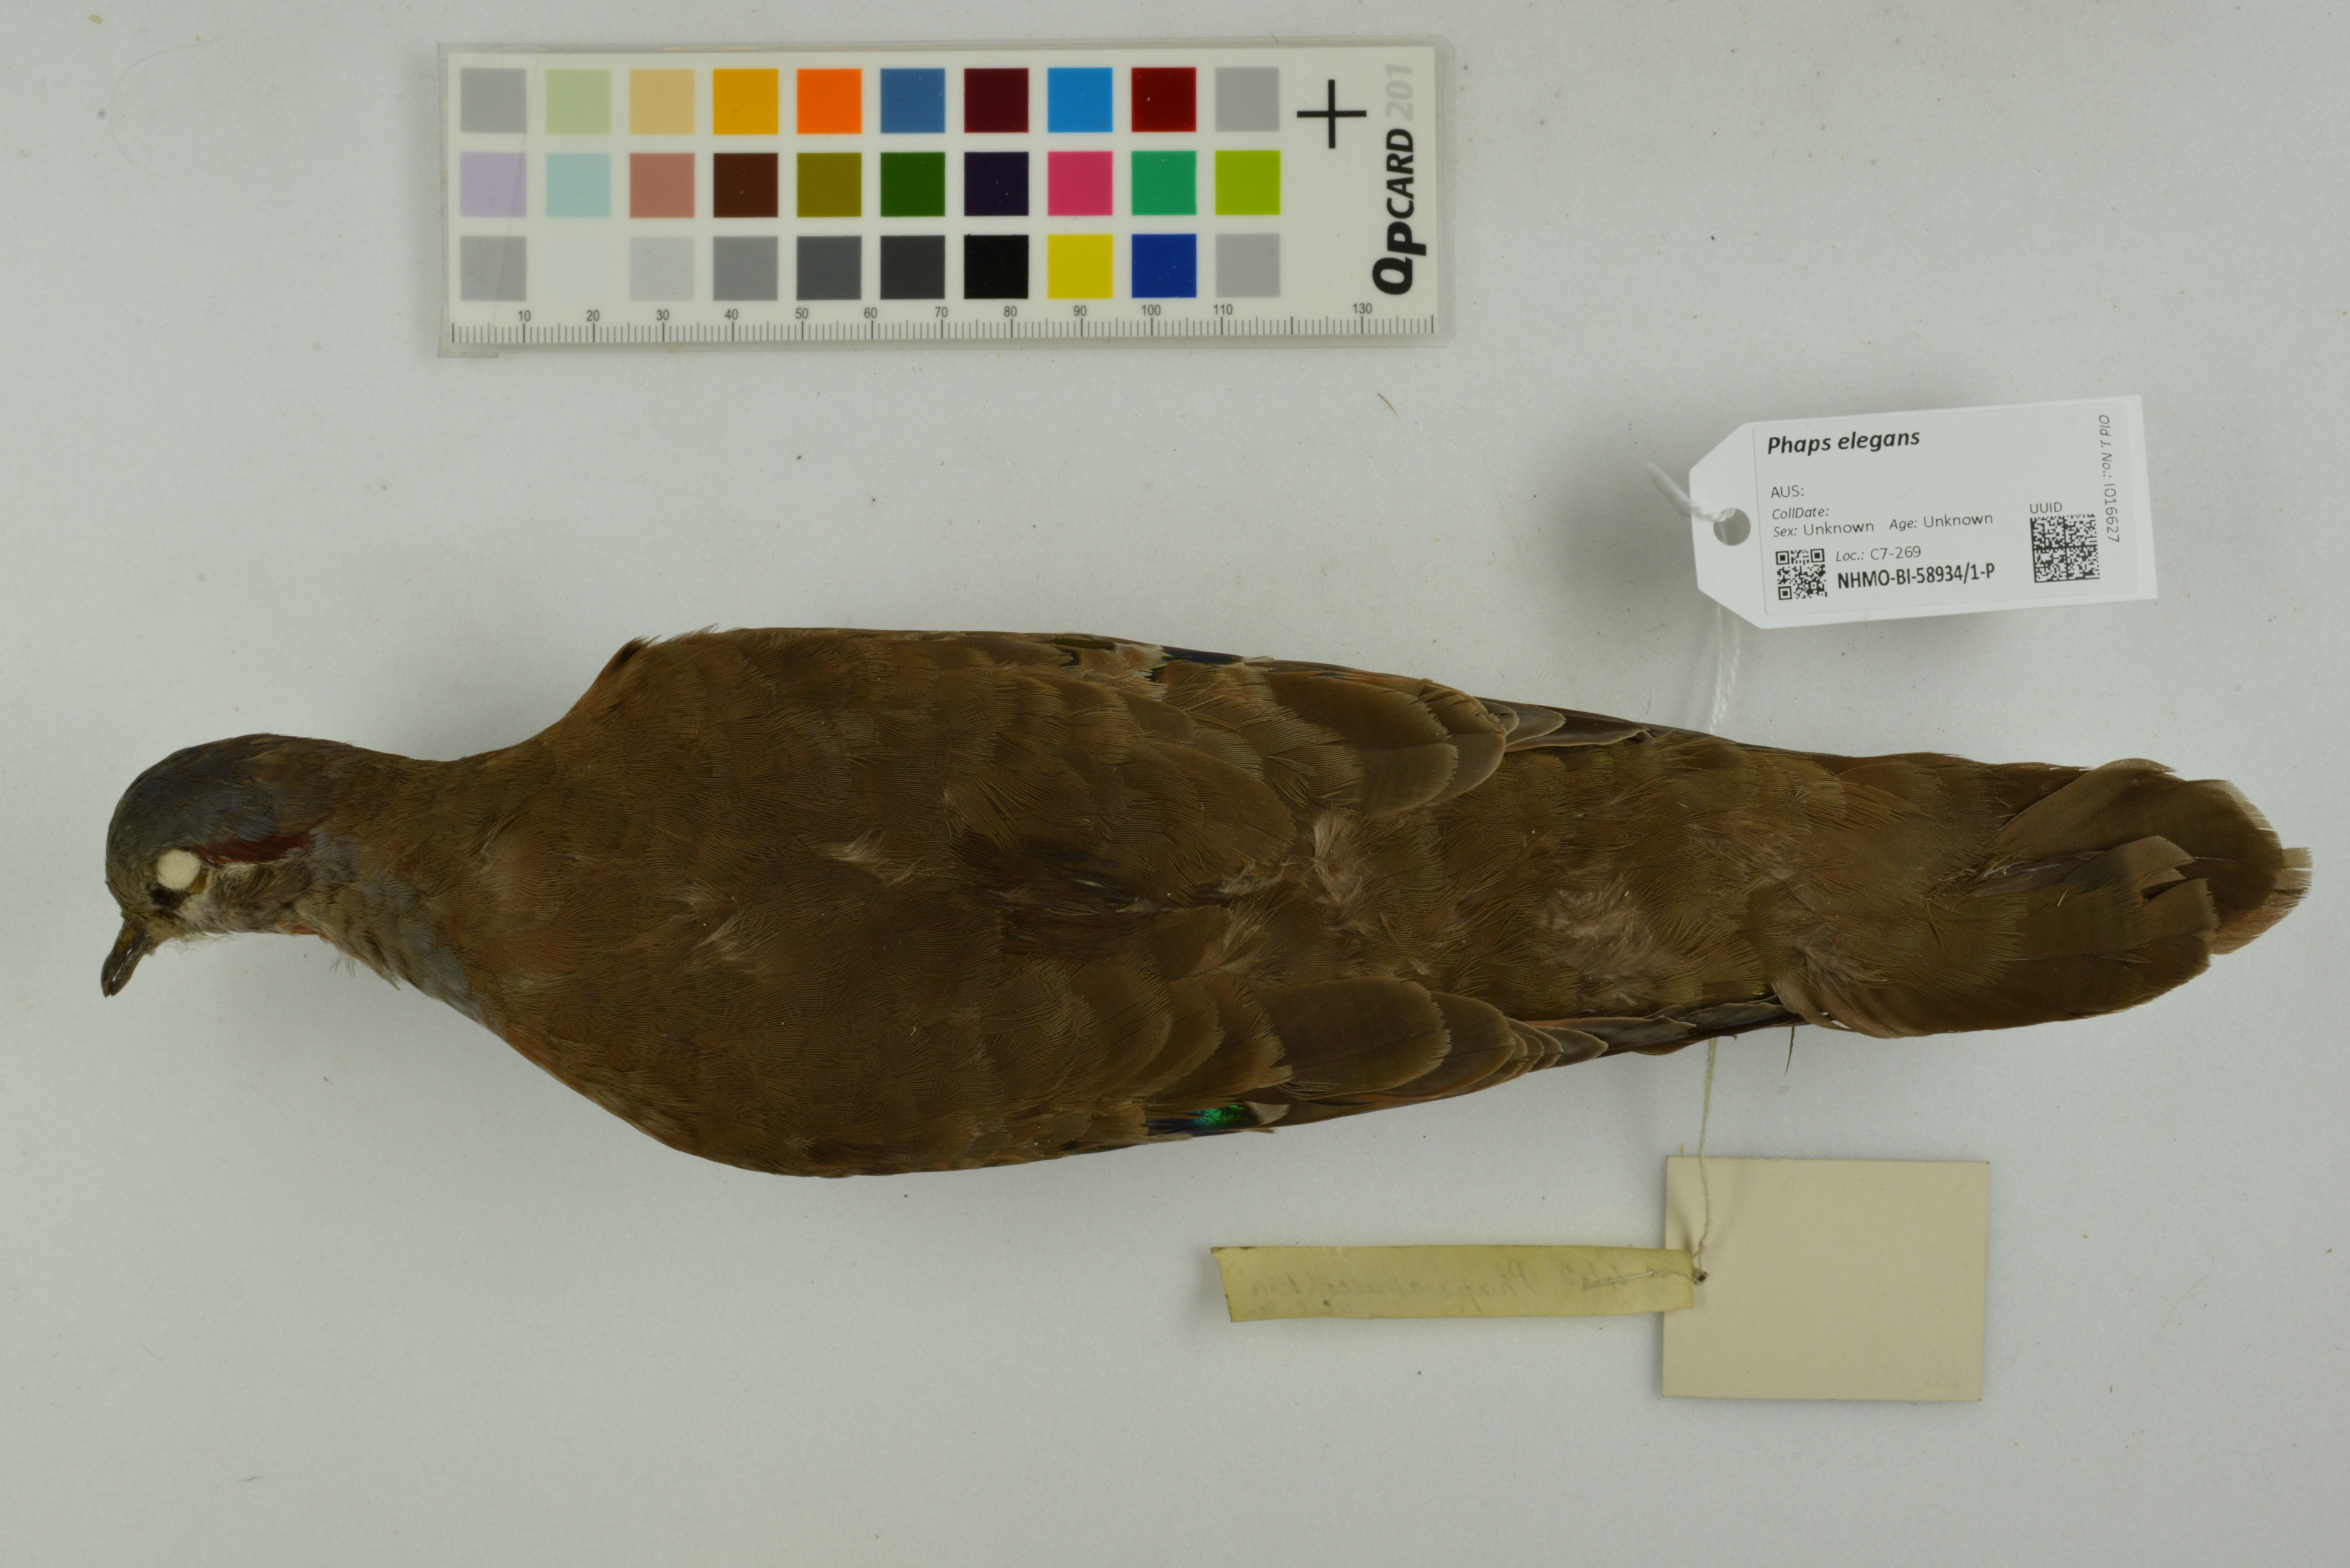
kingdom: Animalia
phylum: Chordata
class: Aves
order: Columbiformes
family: Columbidae
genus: Phaps
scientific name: Phaps elegans
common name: Brush bronzewing
